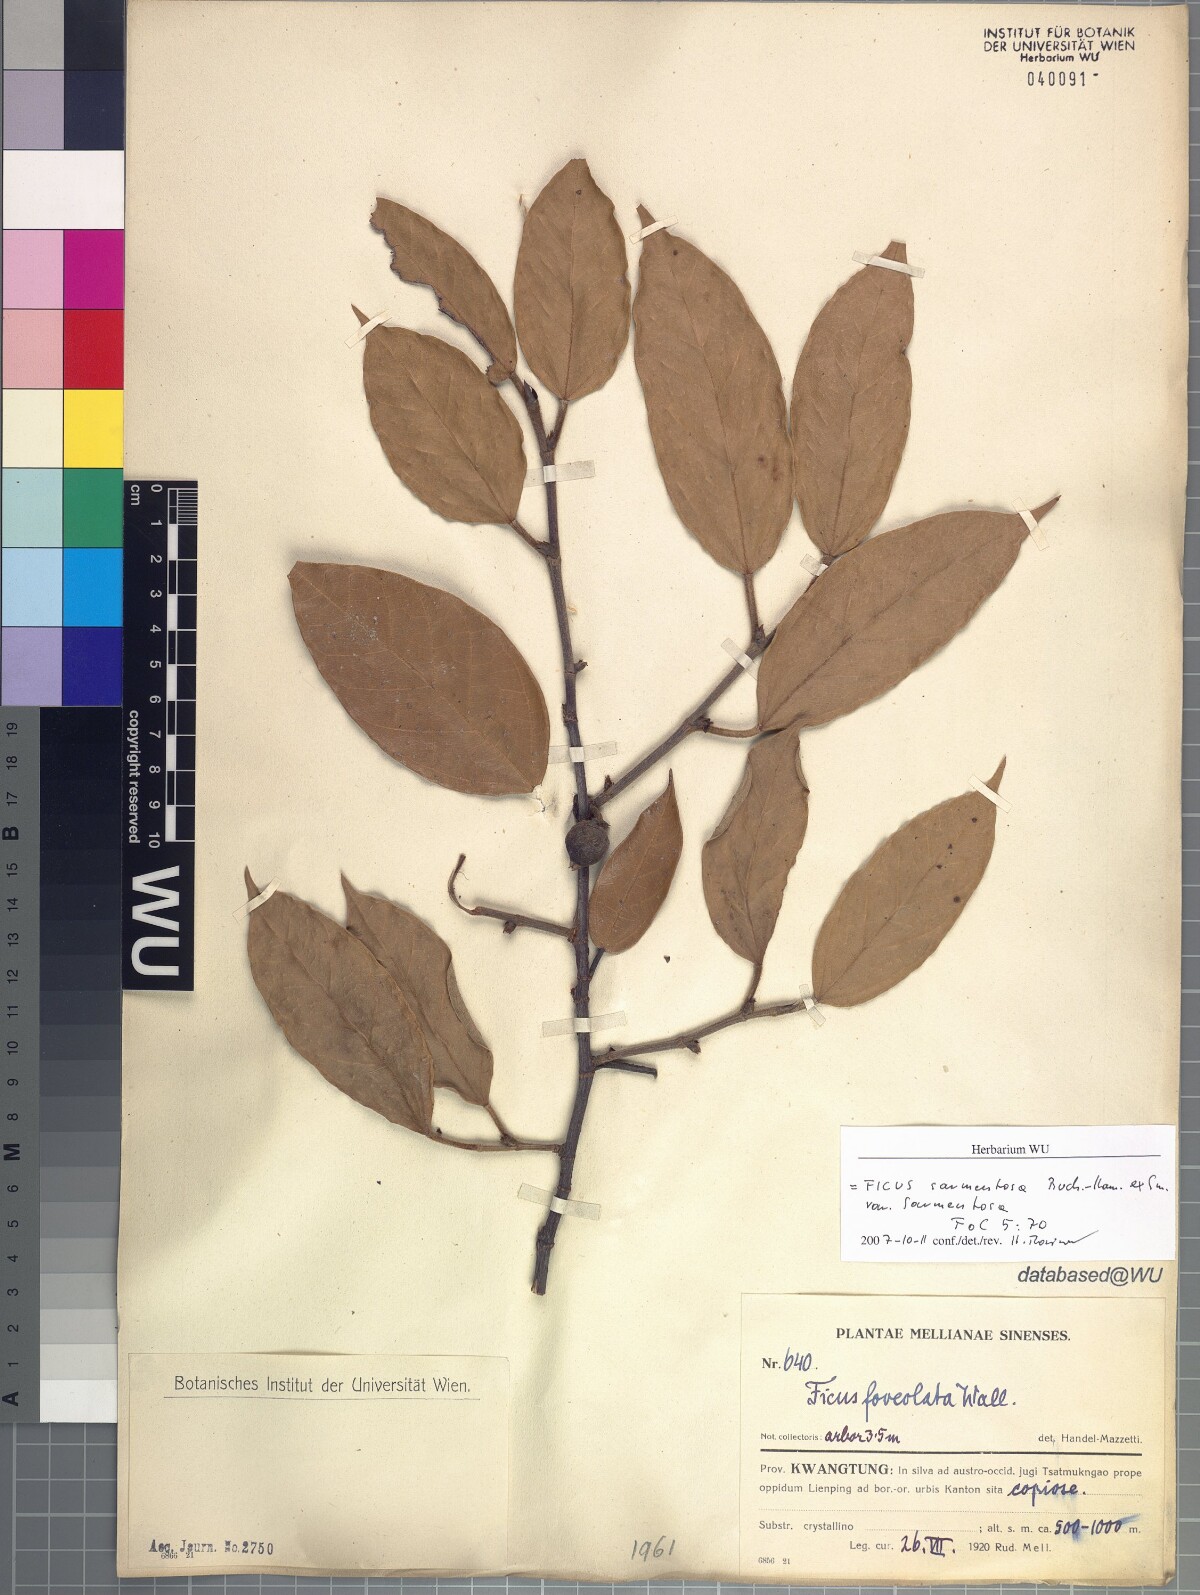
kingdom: Plantae
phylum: Tracheophyta
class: Magnoliopsida
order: Rosales
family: Moraceae
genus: Ficus
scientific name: Ficus sarmentosa
